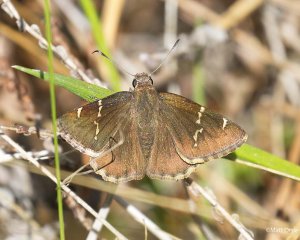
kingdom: Animalia
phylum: Arthropoda
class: Insecta
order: Lepidoptera
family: Hesperiidae
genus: Autochton
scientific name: Autochton
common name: Southern Cloudywing
